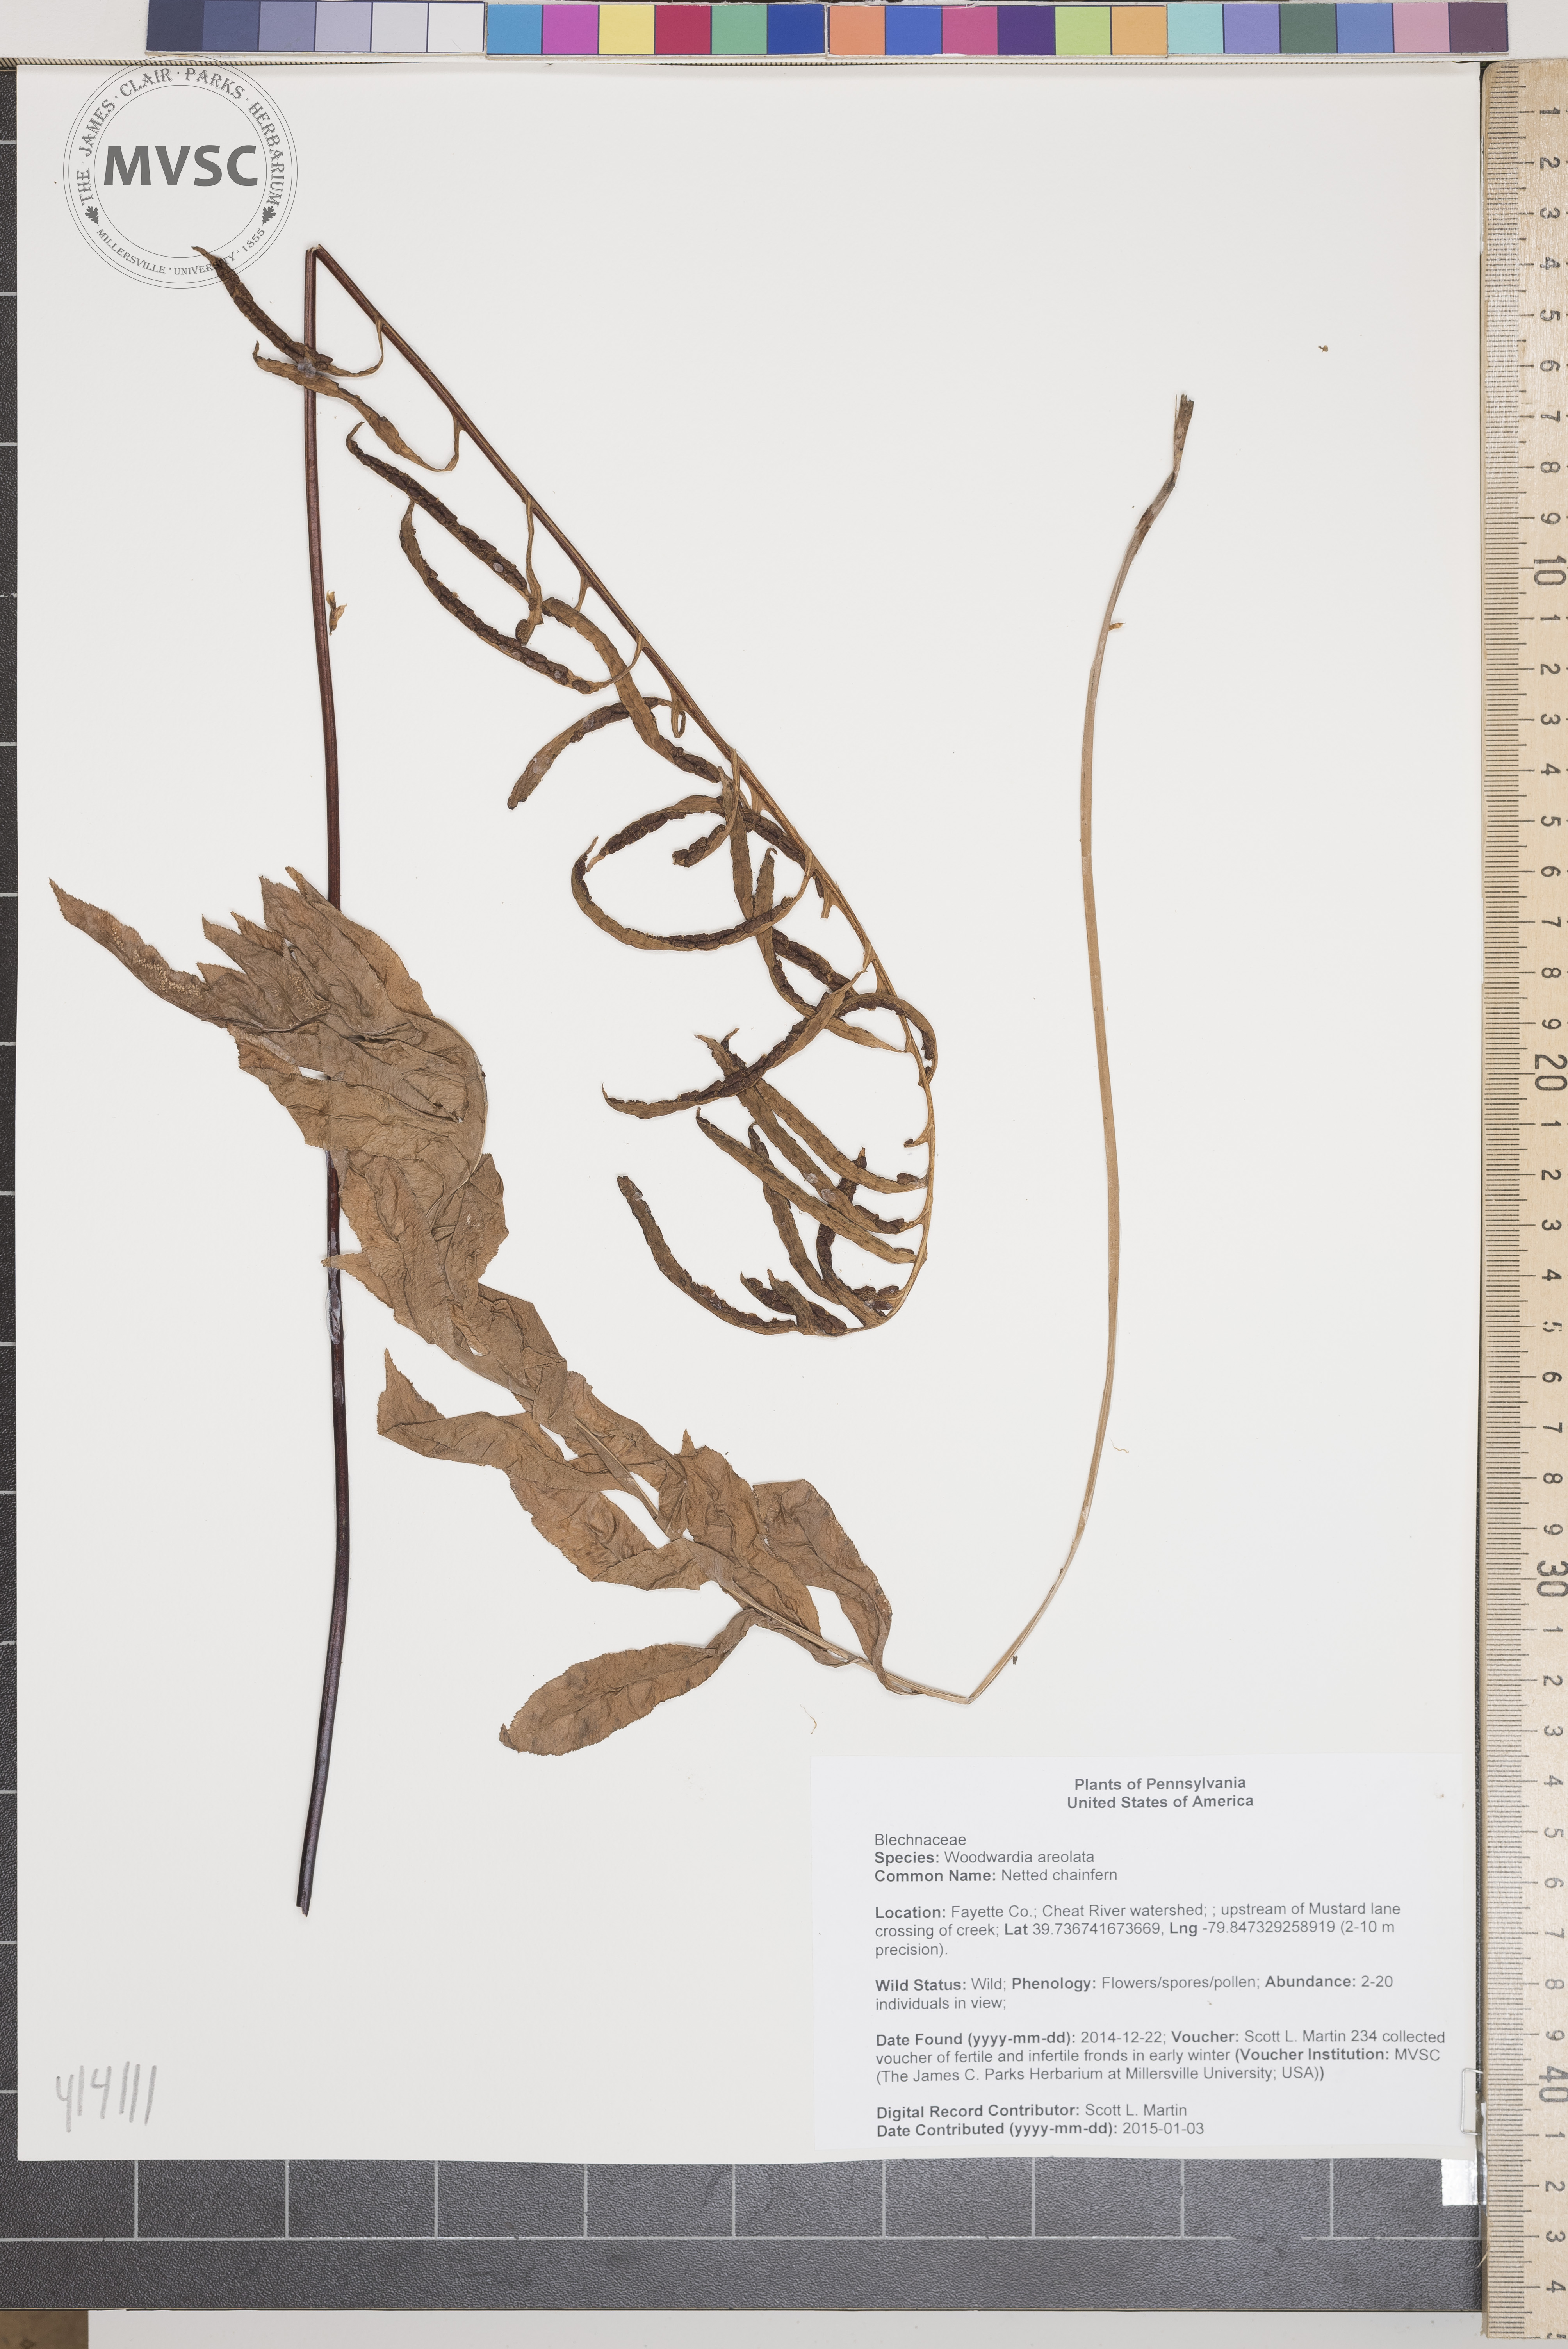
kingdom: Plantae
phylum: Tracheophyta
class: Polypodiopsida
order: Polypodiales
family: Blechnaceae
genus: Lorinseria
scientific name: Lorinseria areolata
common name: Netted chainfern
